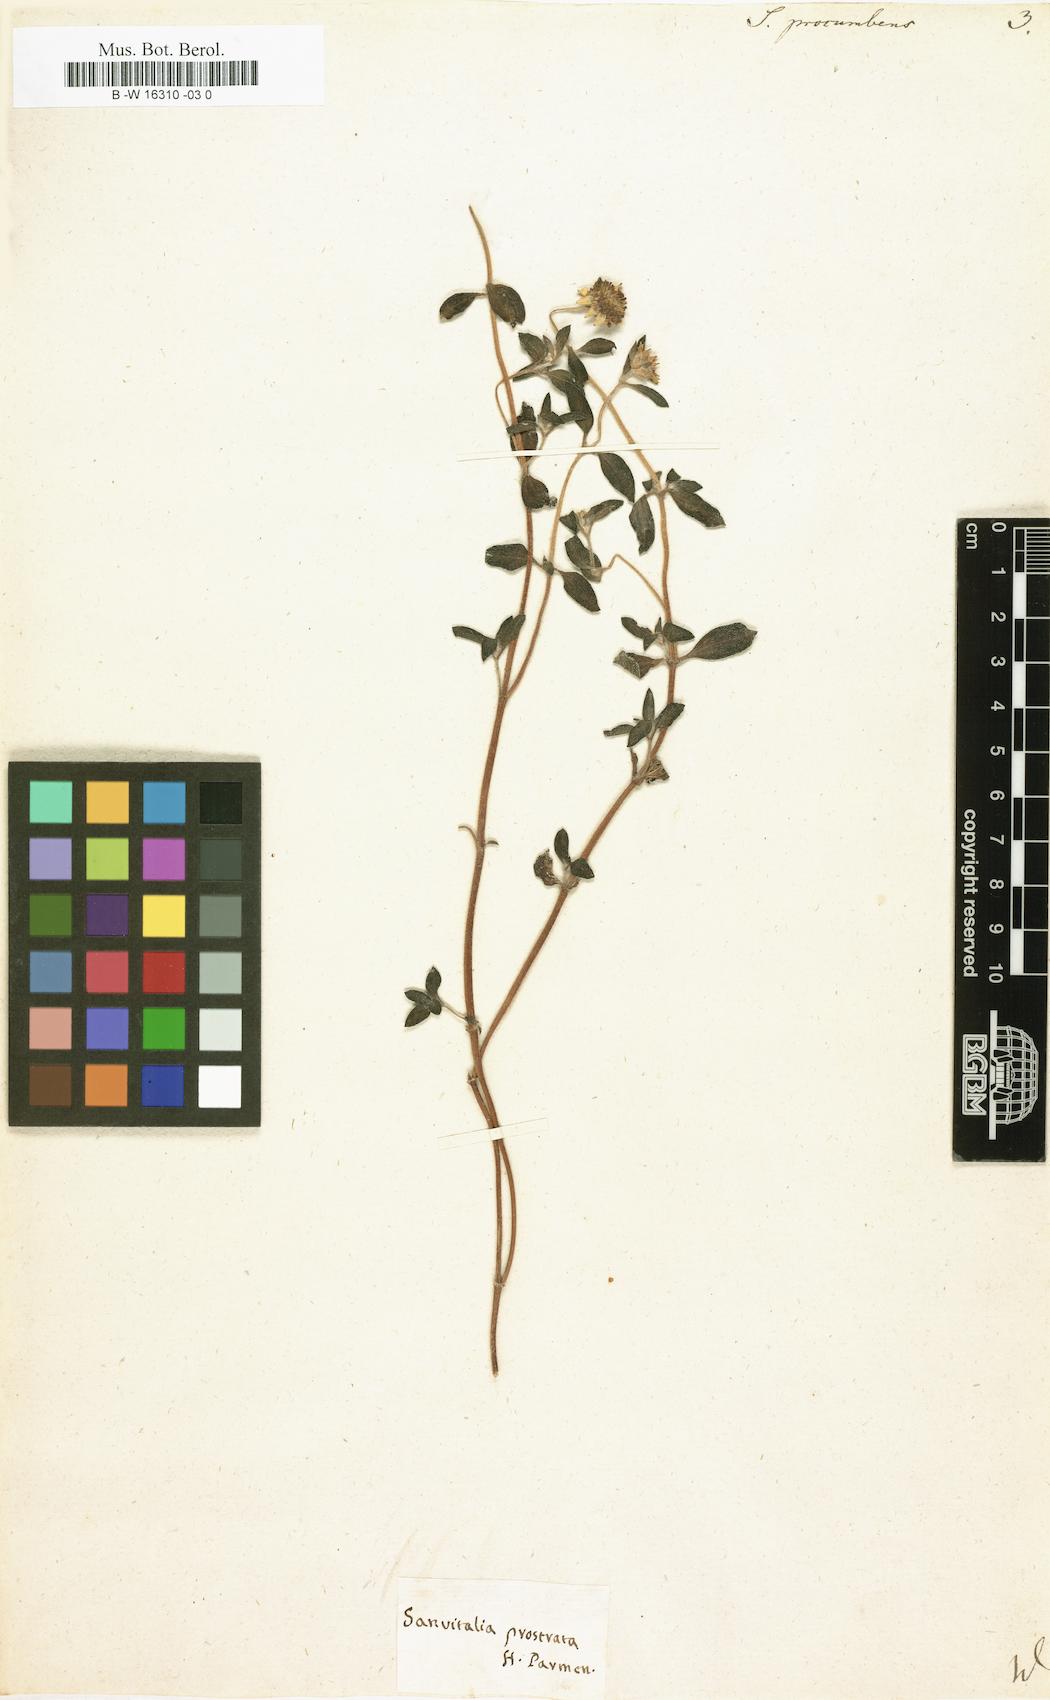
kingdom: Plantae
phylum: Tracheophyta
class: Magnoliopsida
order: Asterales
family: Asteraceae
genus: Sanvitalia
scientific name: Sanvitalia procumbens
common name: Mexican creeping zinnia
